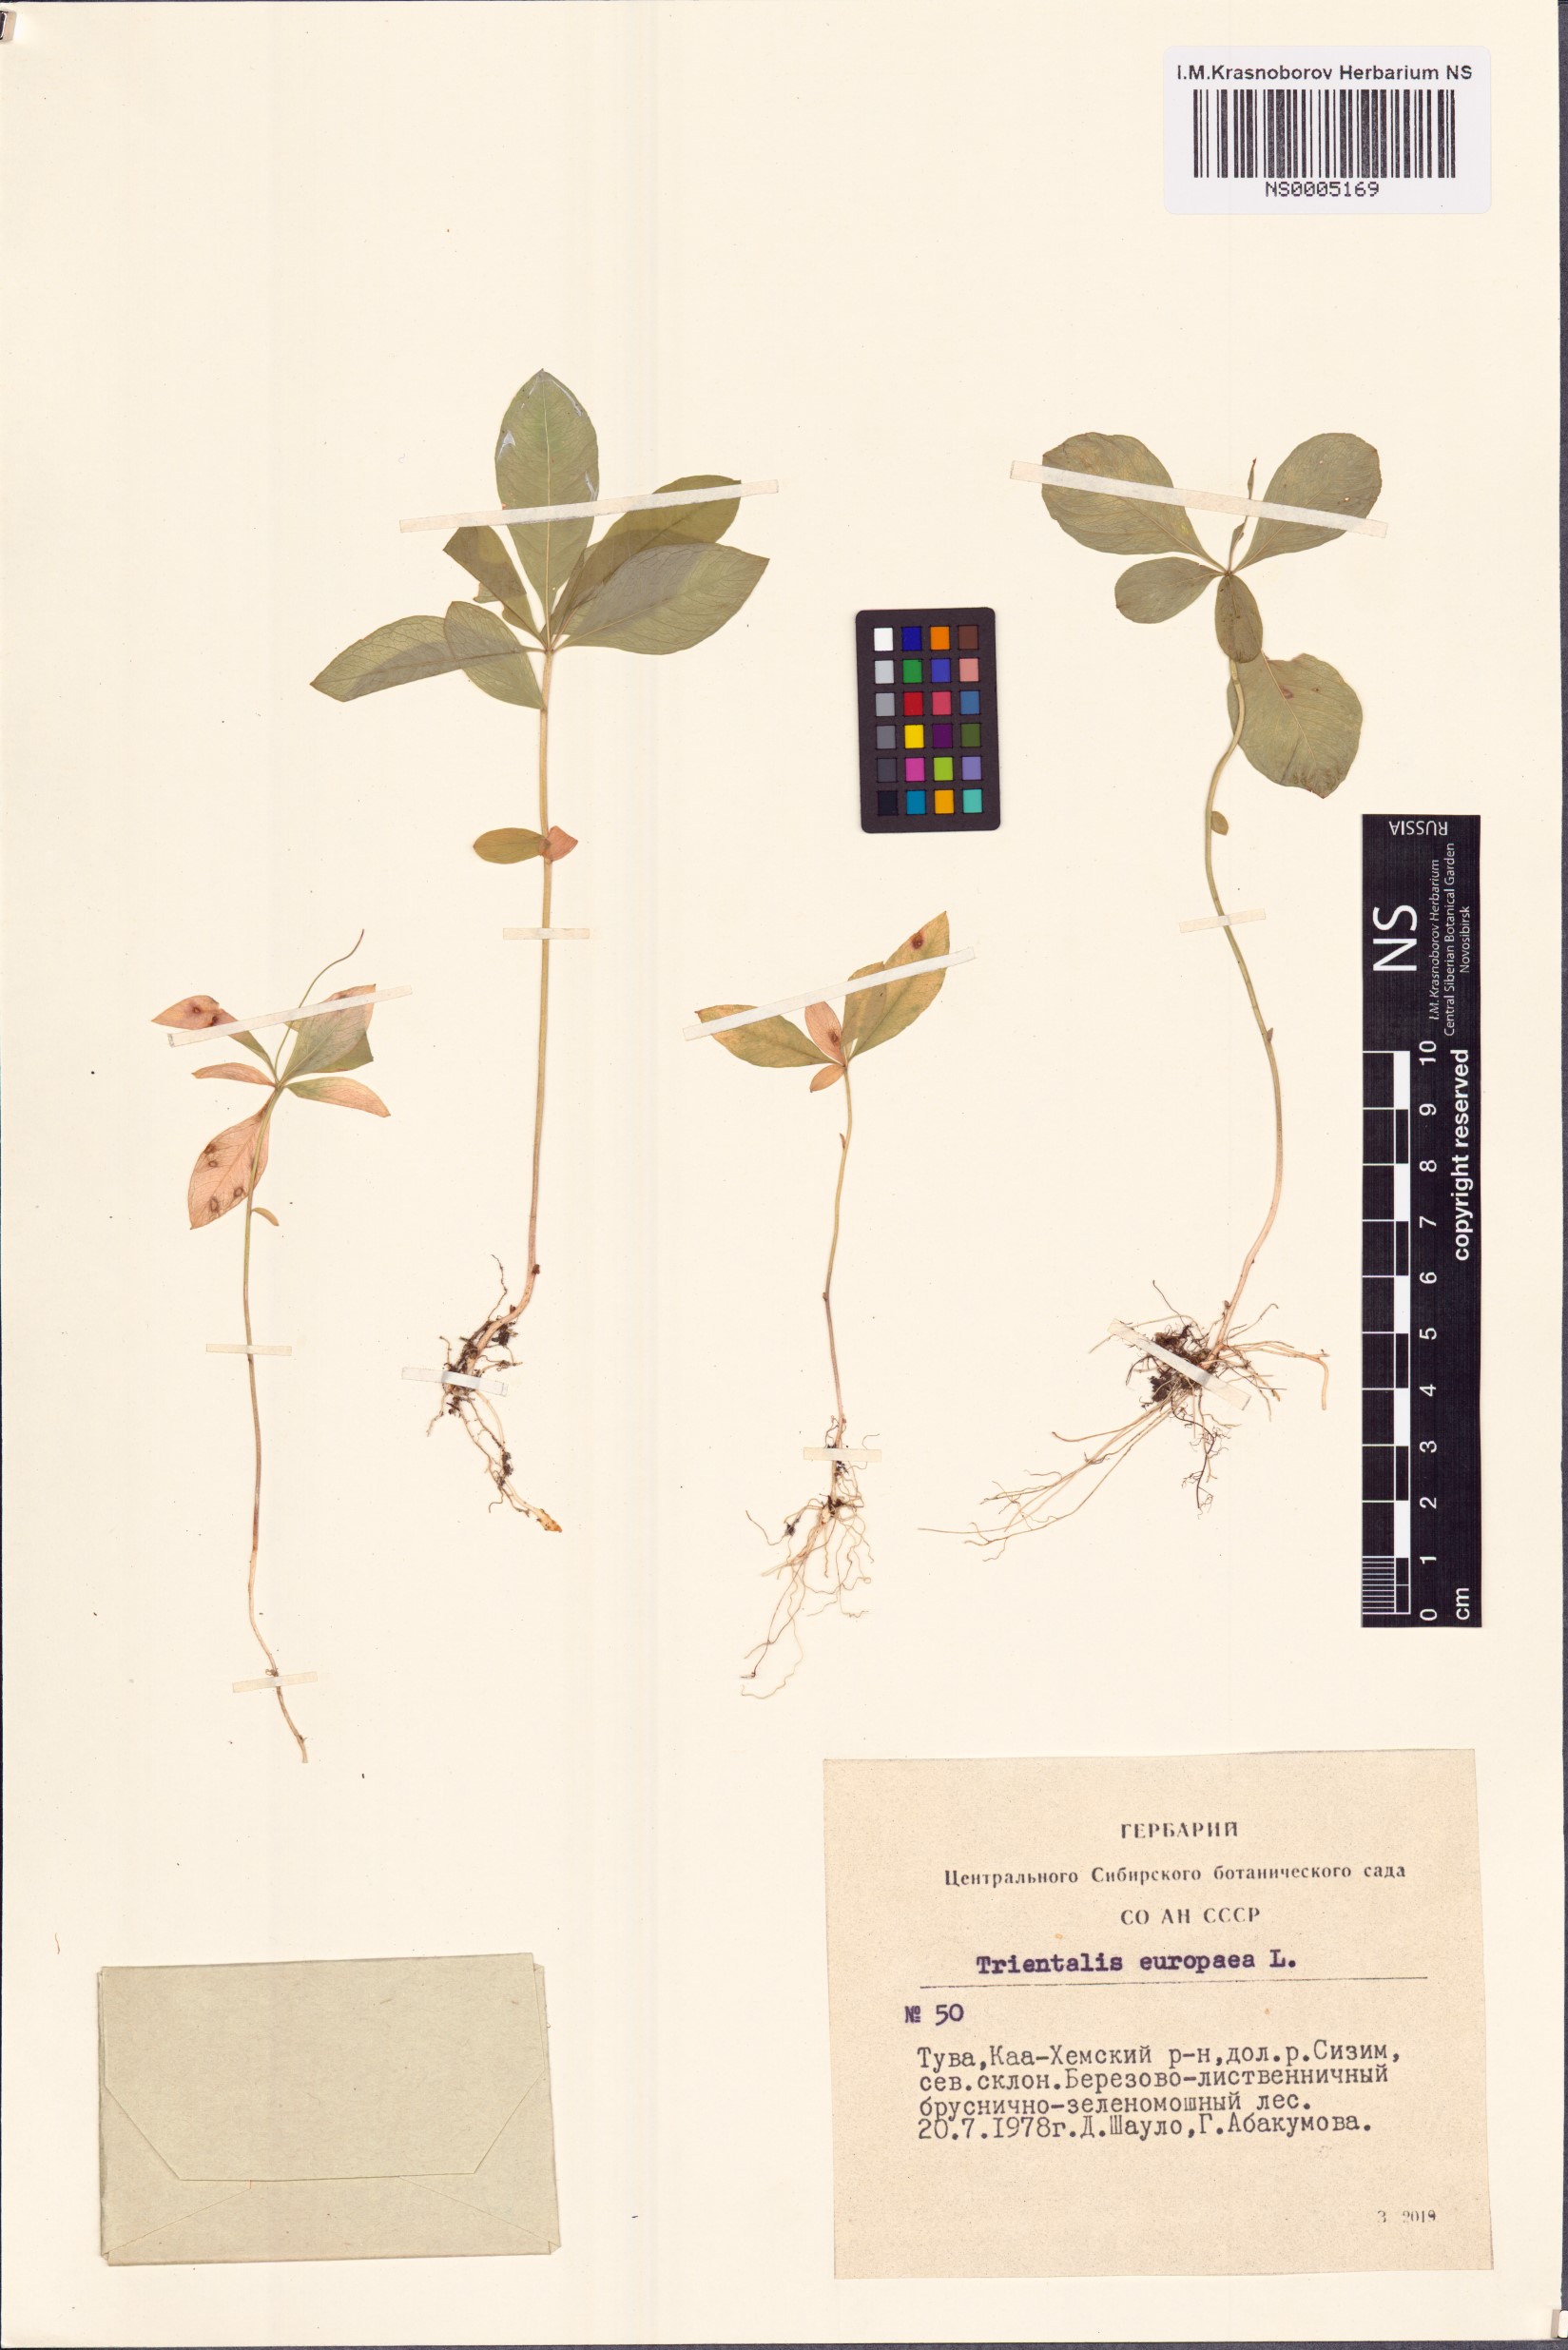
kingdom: Plantae
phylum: Tracheophyta
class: Magnoliopsida
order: Ericales
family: Primulaceae
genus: Lysimachia
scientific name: Lysimachia europaea
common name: Arctic starflower
